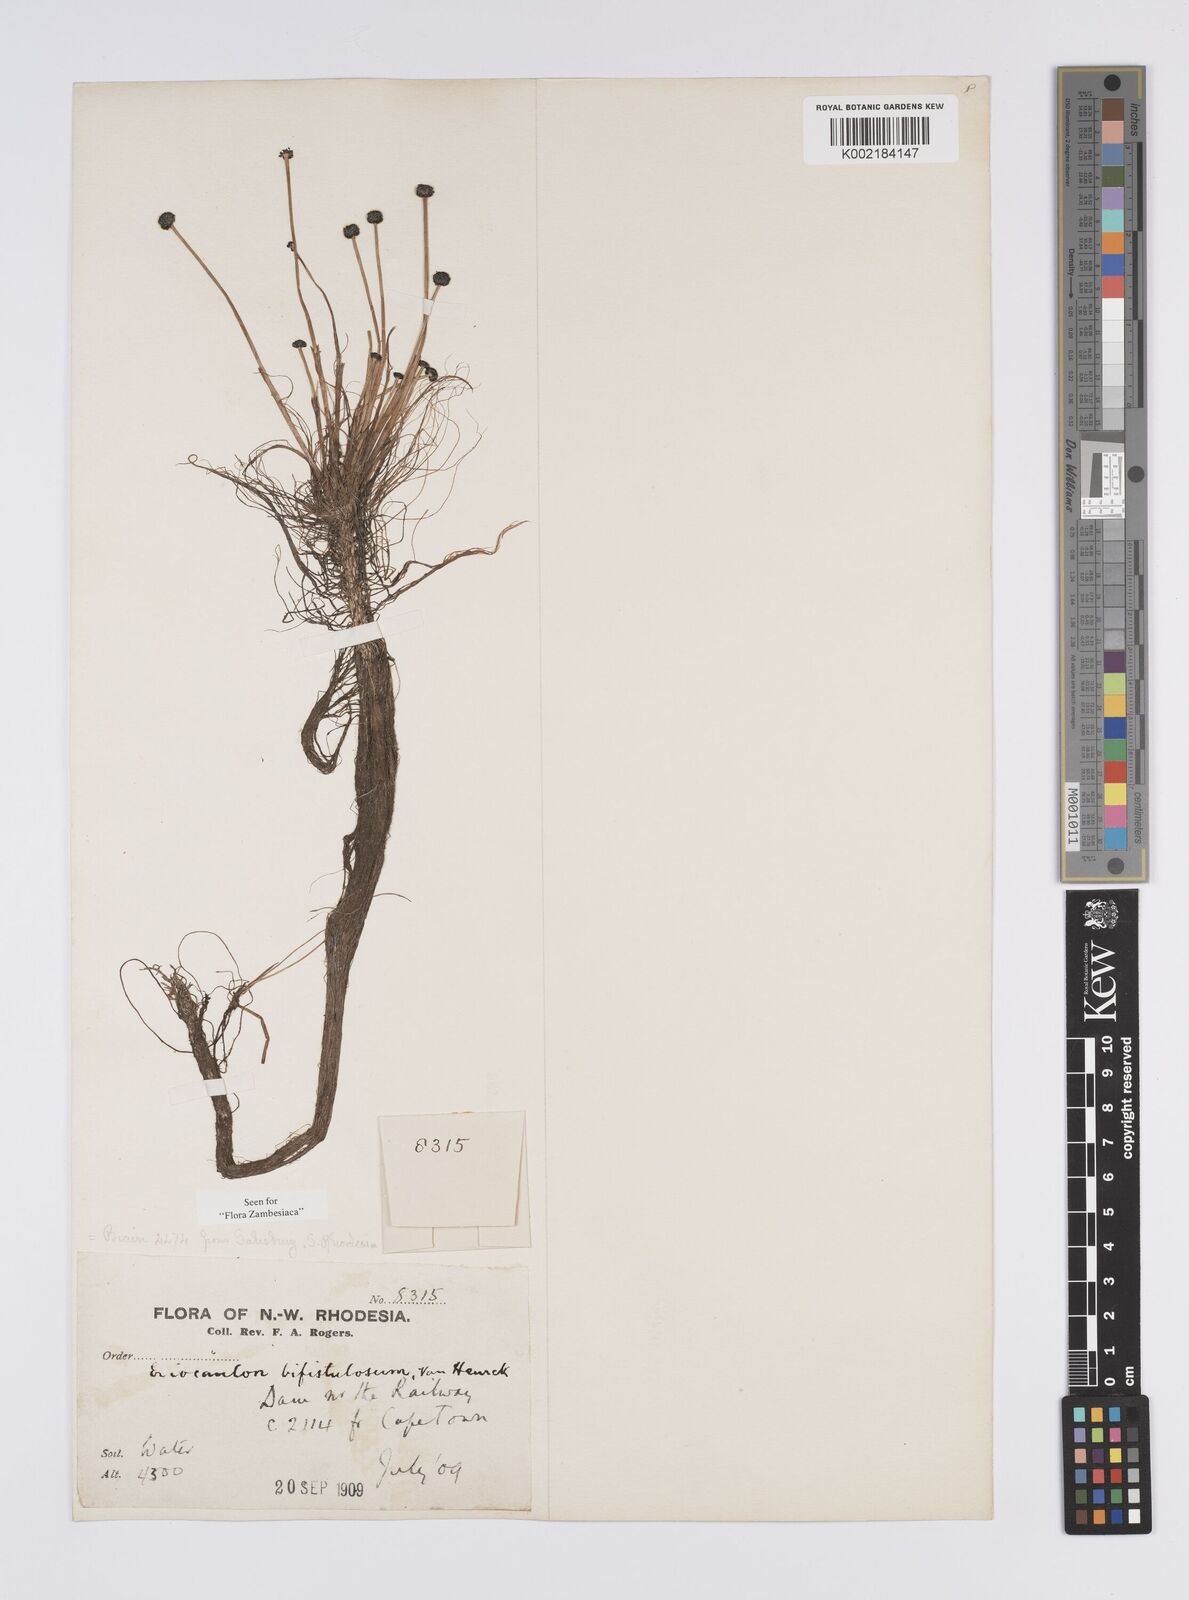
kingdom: Plantae
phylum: Tracheophyta
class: Liliopsida
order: Poales
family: Eriocaulaceae
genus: Eriocaulon
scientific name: Eriocaulon setaceum
